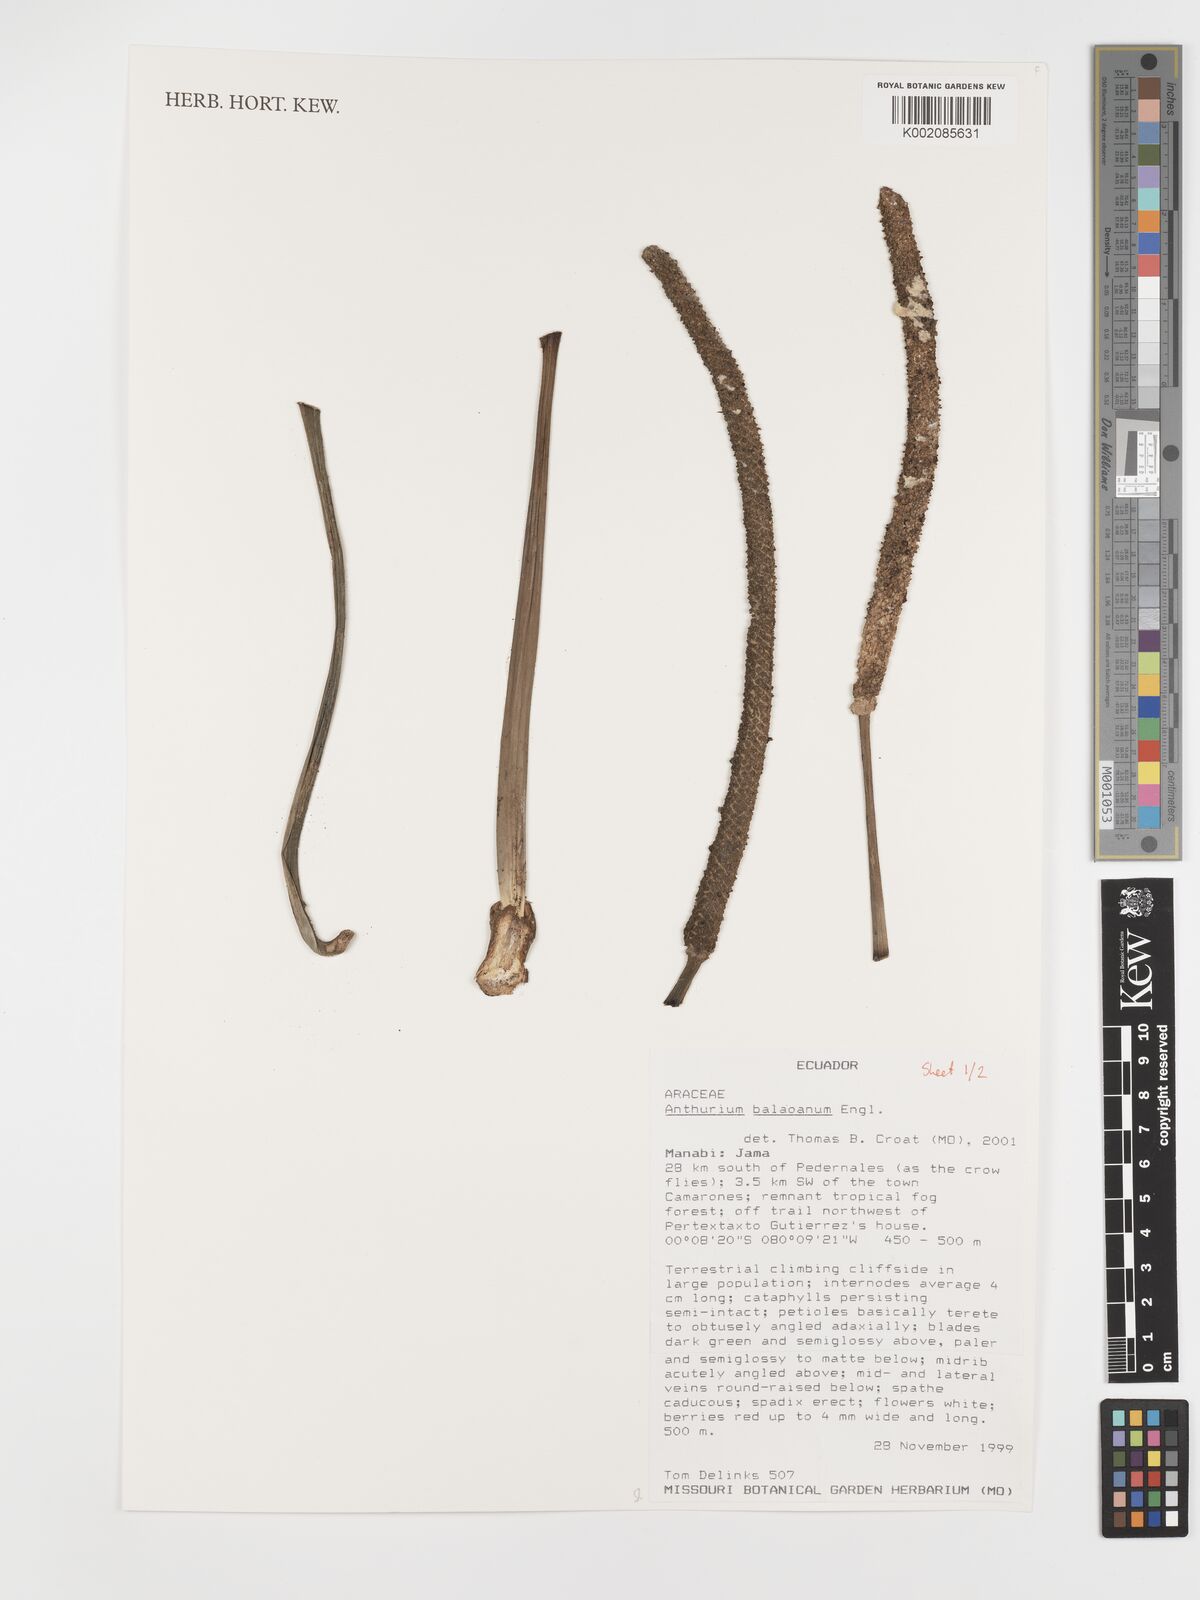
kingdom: Plantae
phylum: Tracheophyta
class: Liliopsida
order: Alismatales
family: Araceae
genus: Anthurium
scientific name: Anthurium balaoanum
